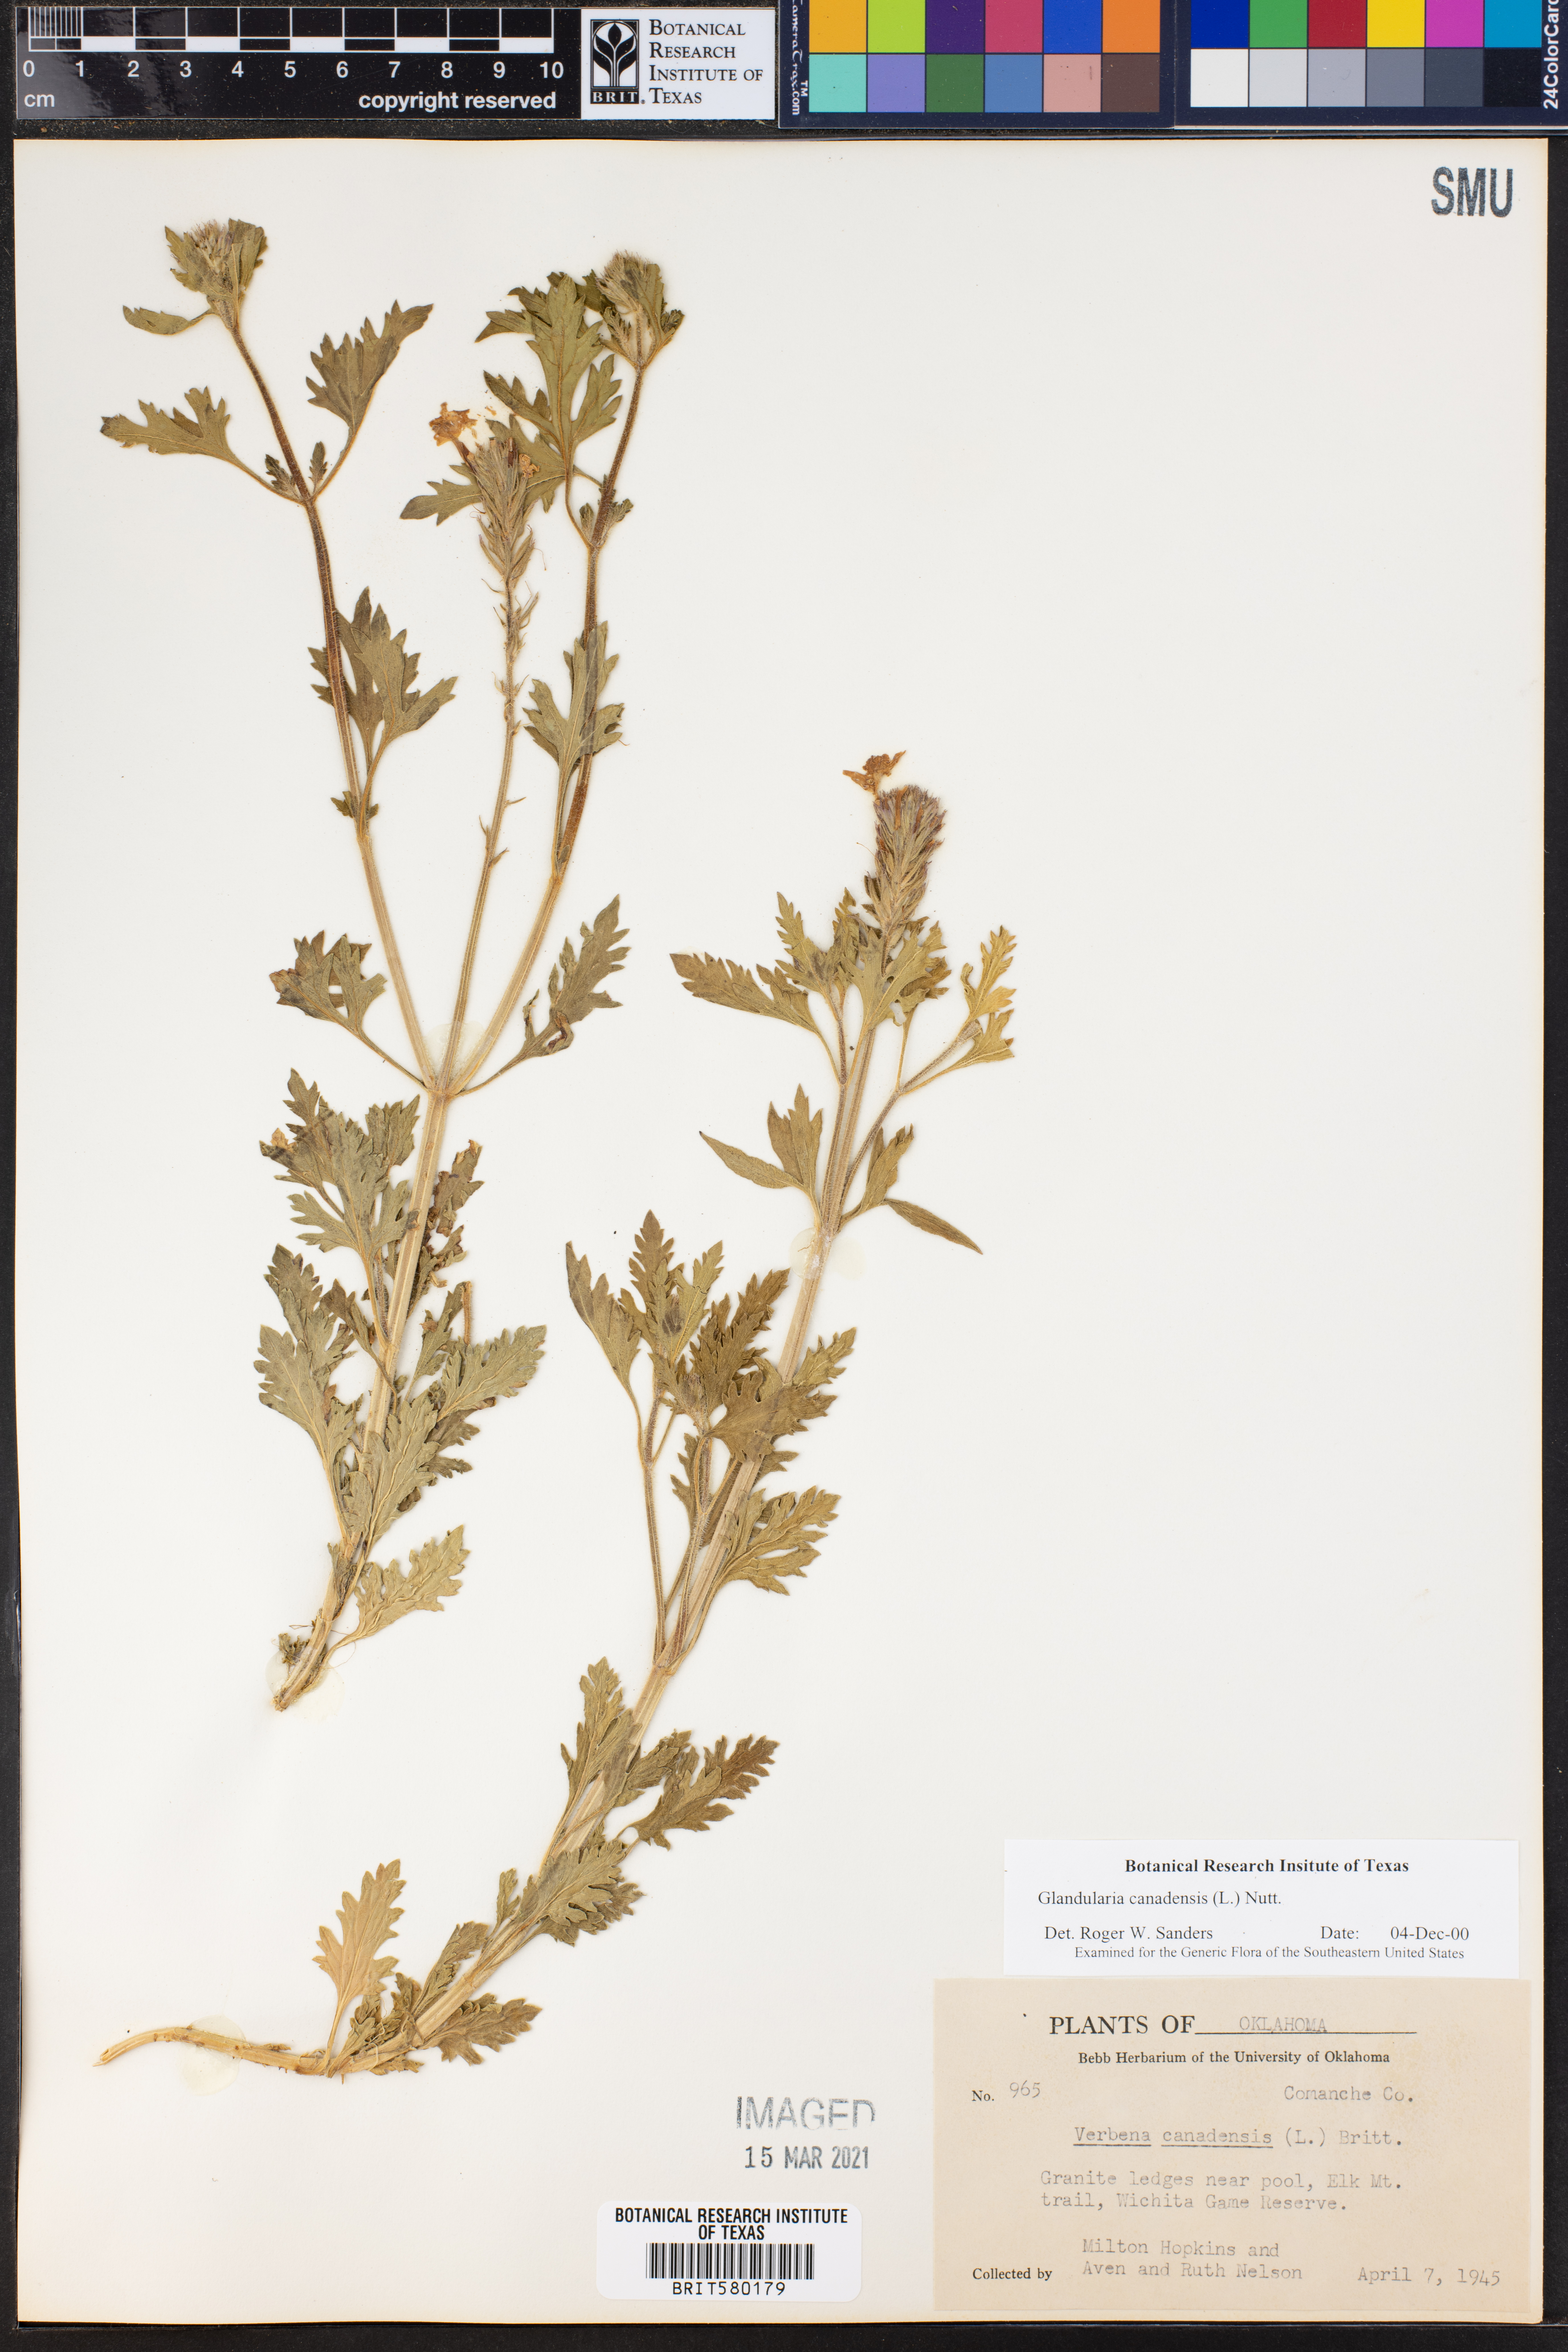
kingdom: Plantae
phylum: Tracheophyta
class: Magnoliopsida
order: Lamiales
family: Verbenaceae
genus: Verbena
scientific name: Verbena canadensis
